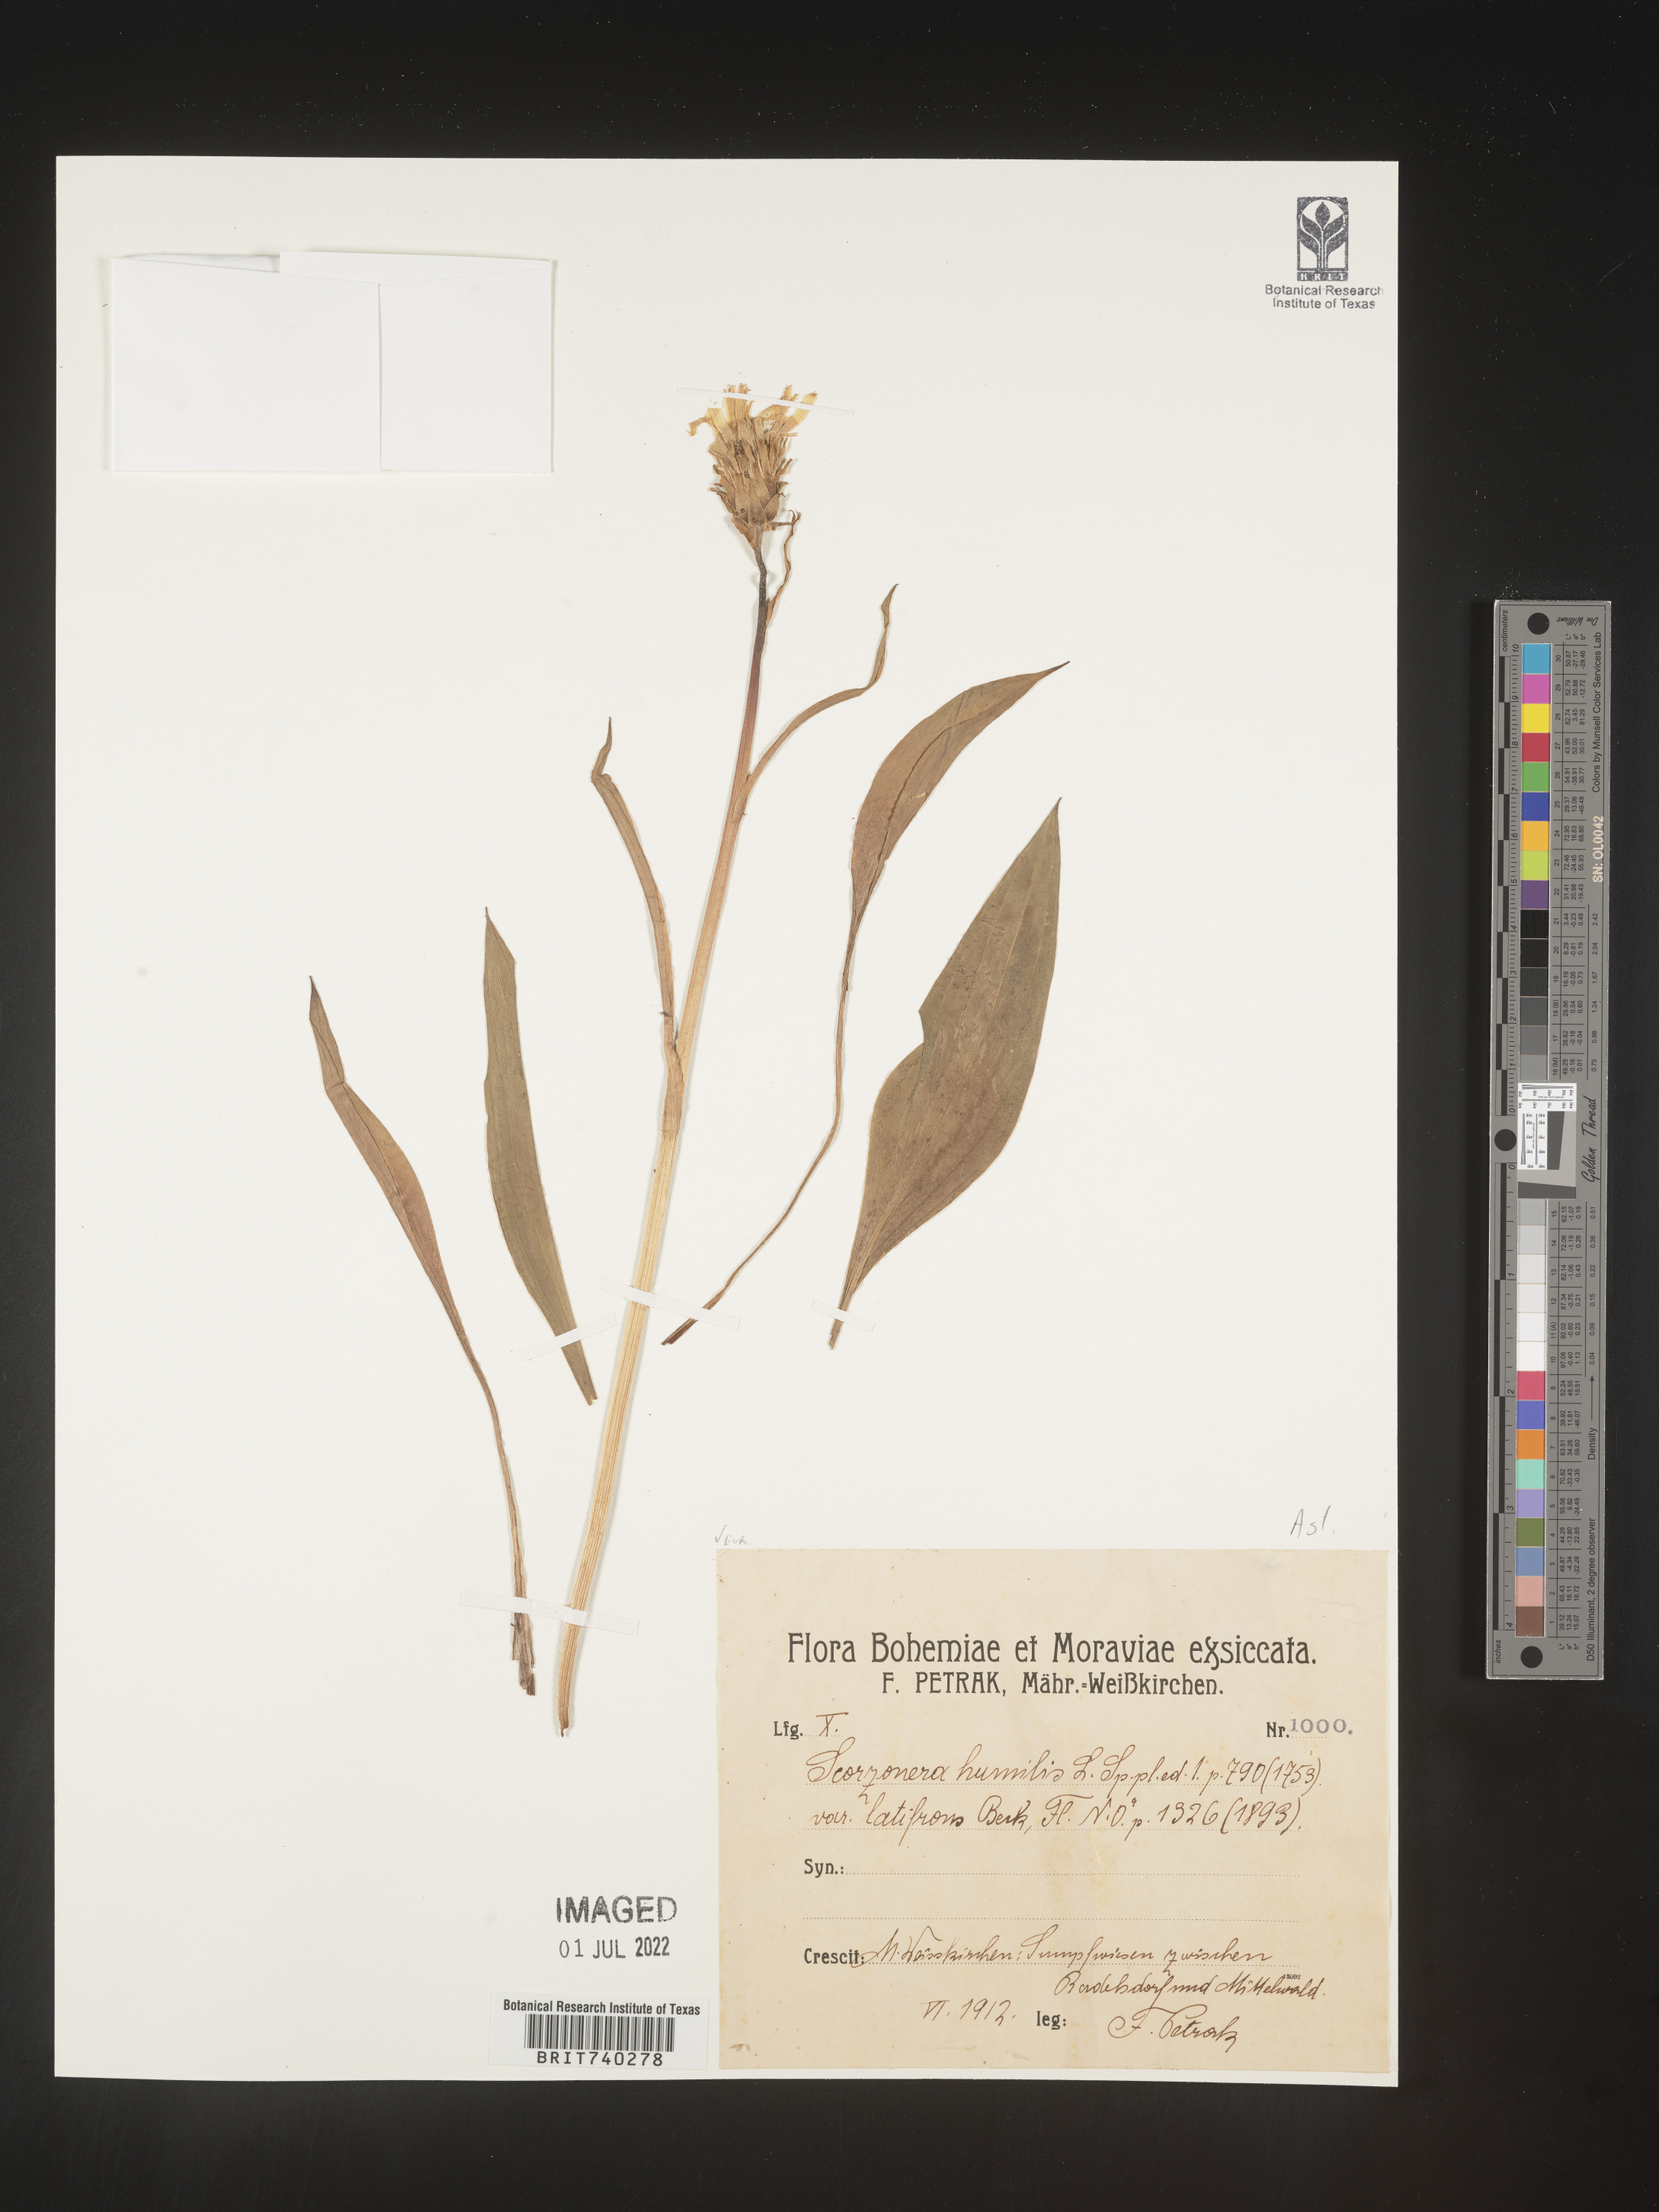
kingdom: Plantae
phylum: Tracheophyta
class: Magnoliopsida
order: Asterales
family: Asteraceae
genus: Scorzonera
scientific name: Scorzonera
